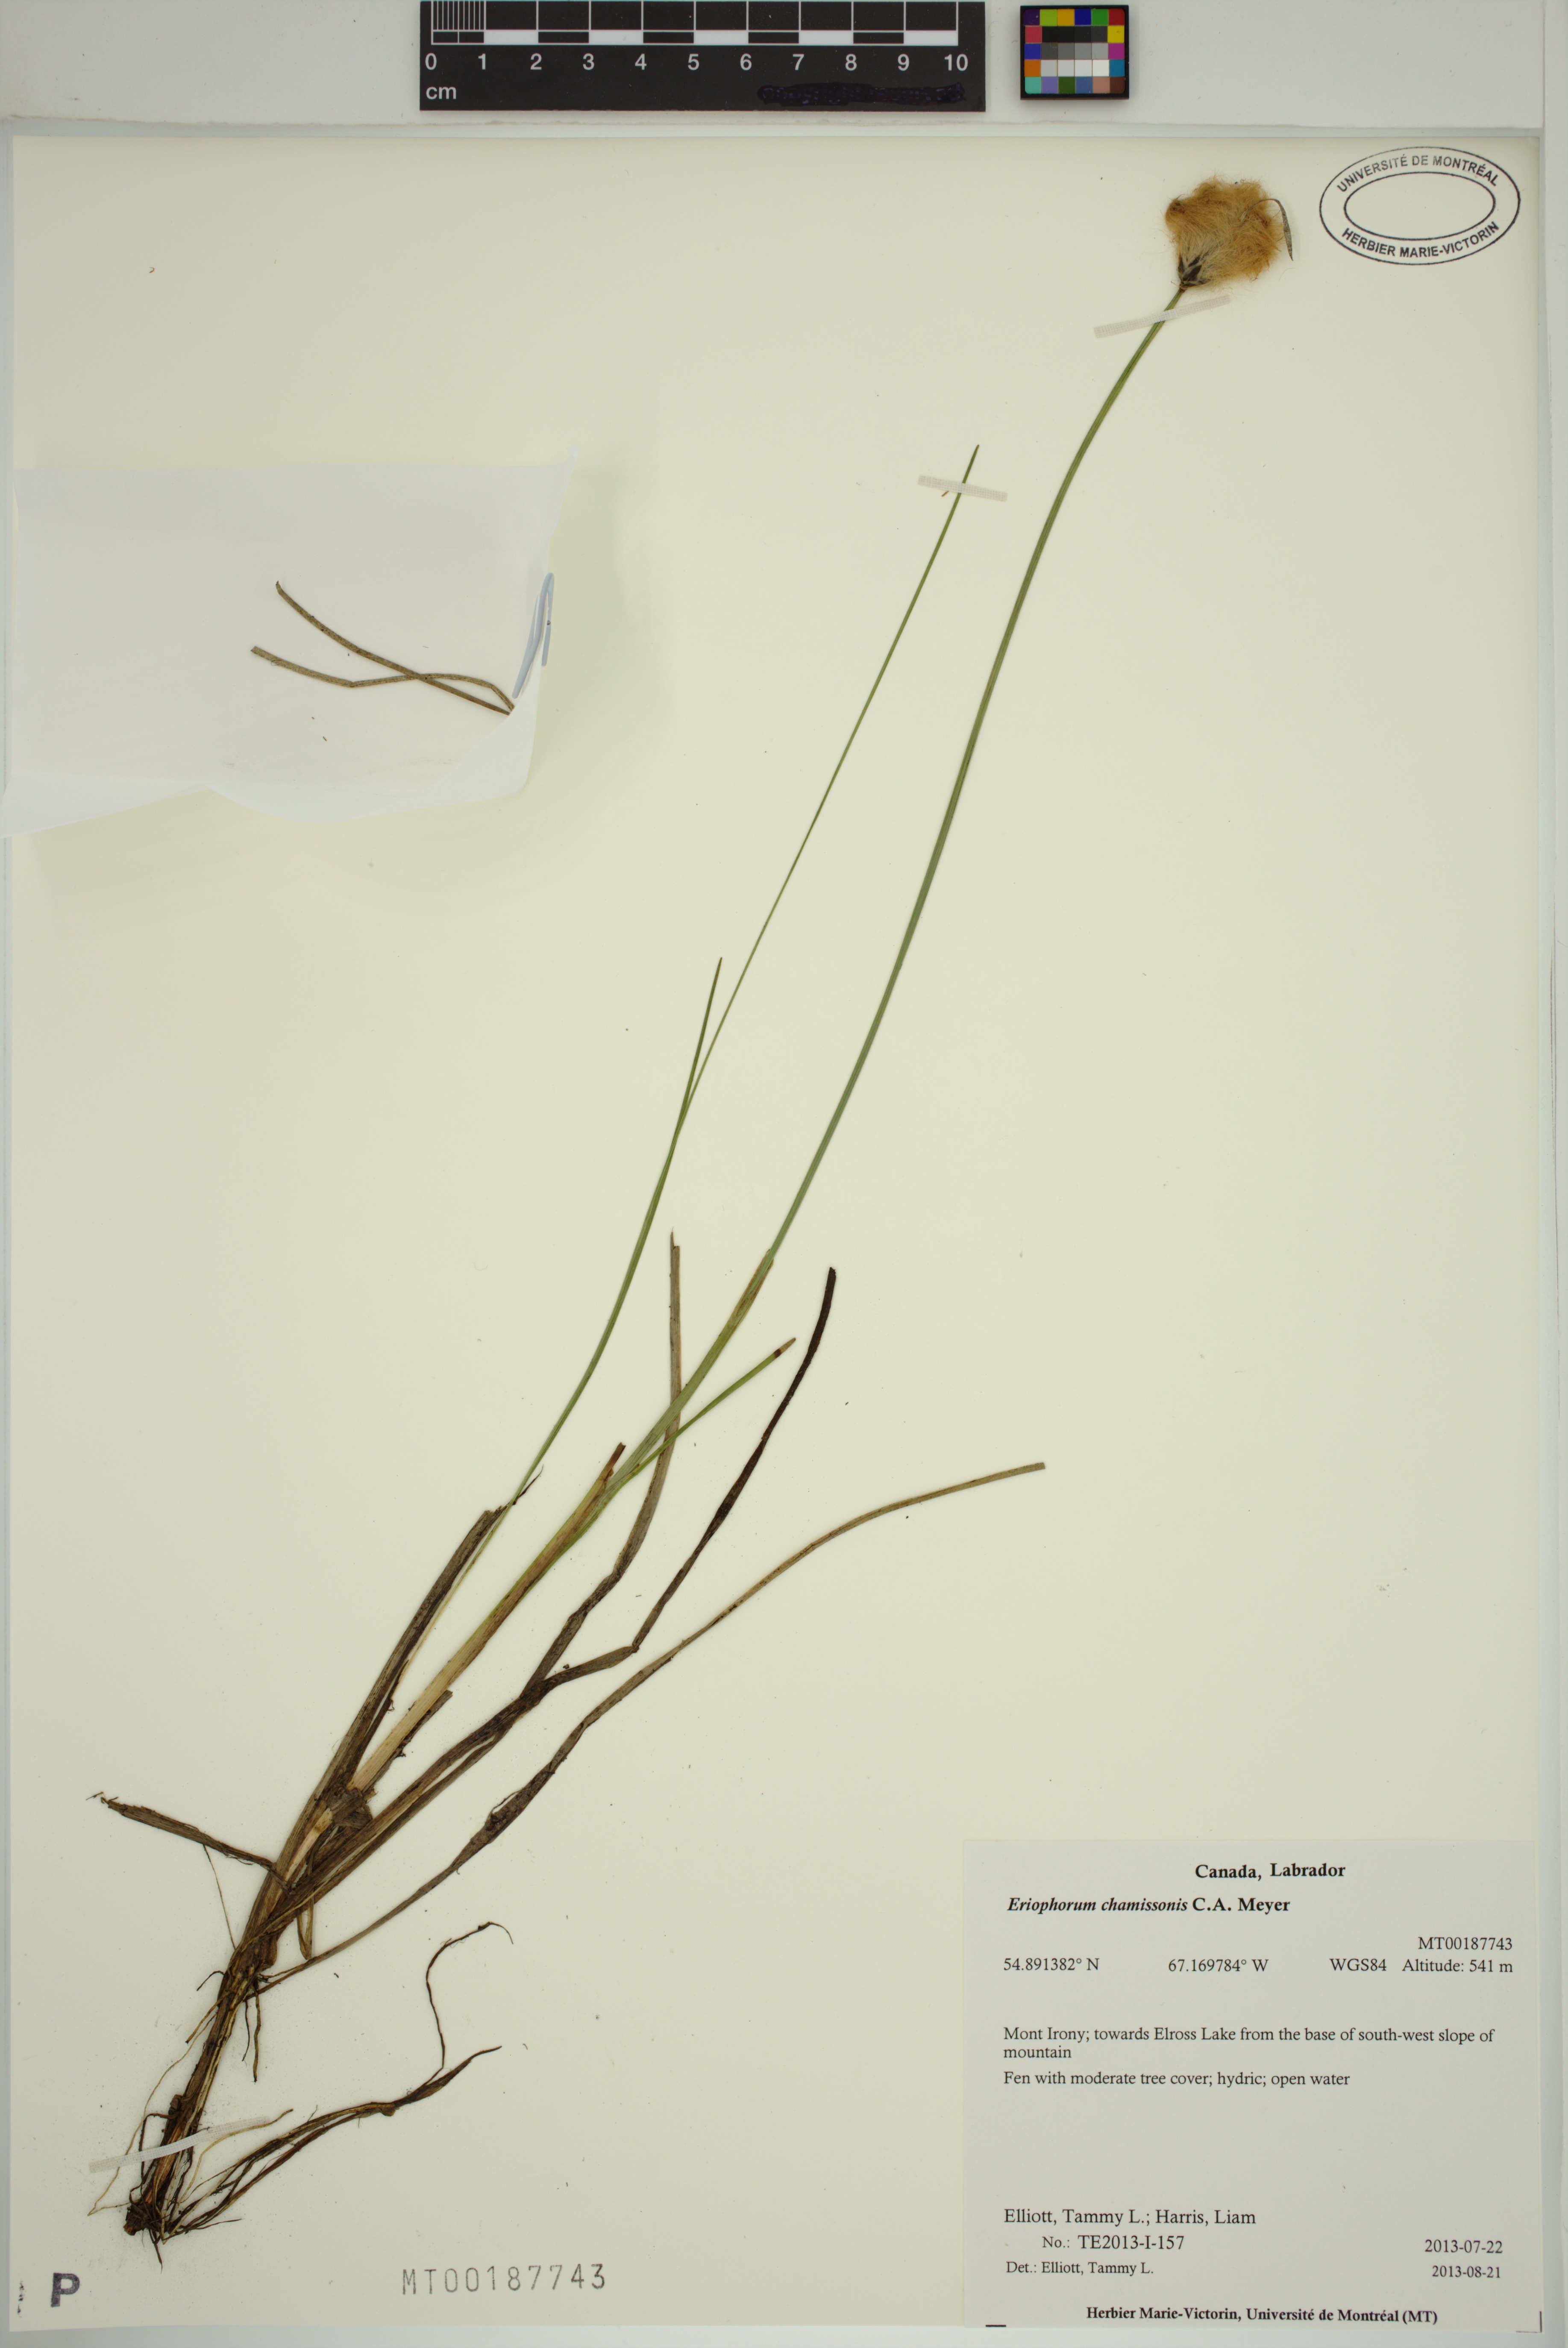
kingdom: Plantae
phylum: Tracheophyta
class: Liliopsida
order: Poales
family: Cyperaceae
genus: Eriophorum
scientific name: Eriophorum chamissonis
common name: Chamisso's cottongrass
